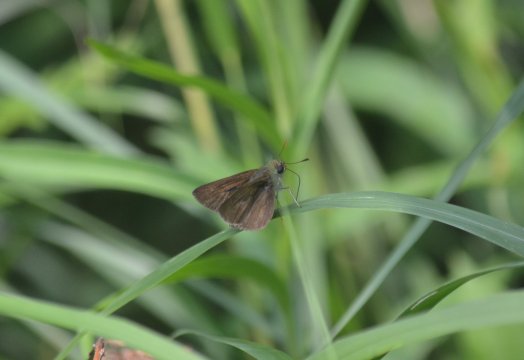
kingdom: Animalia
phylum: Arthropoda
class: Insecta
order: Lepidoptera
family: Hesperiidae
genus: Euphyes
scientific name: Euphyes vestris
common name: Dun Skipper
